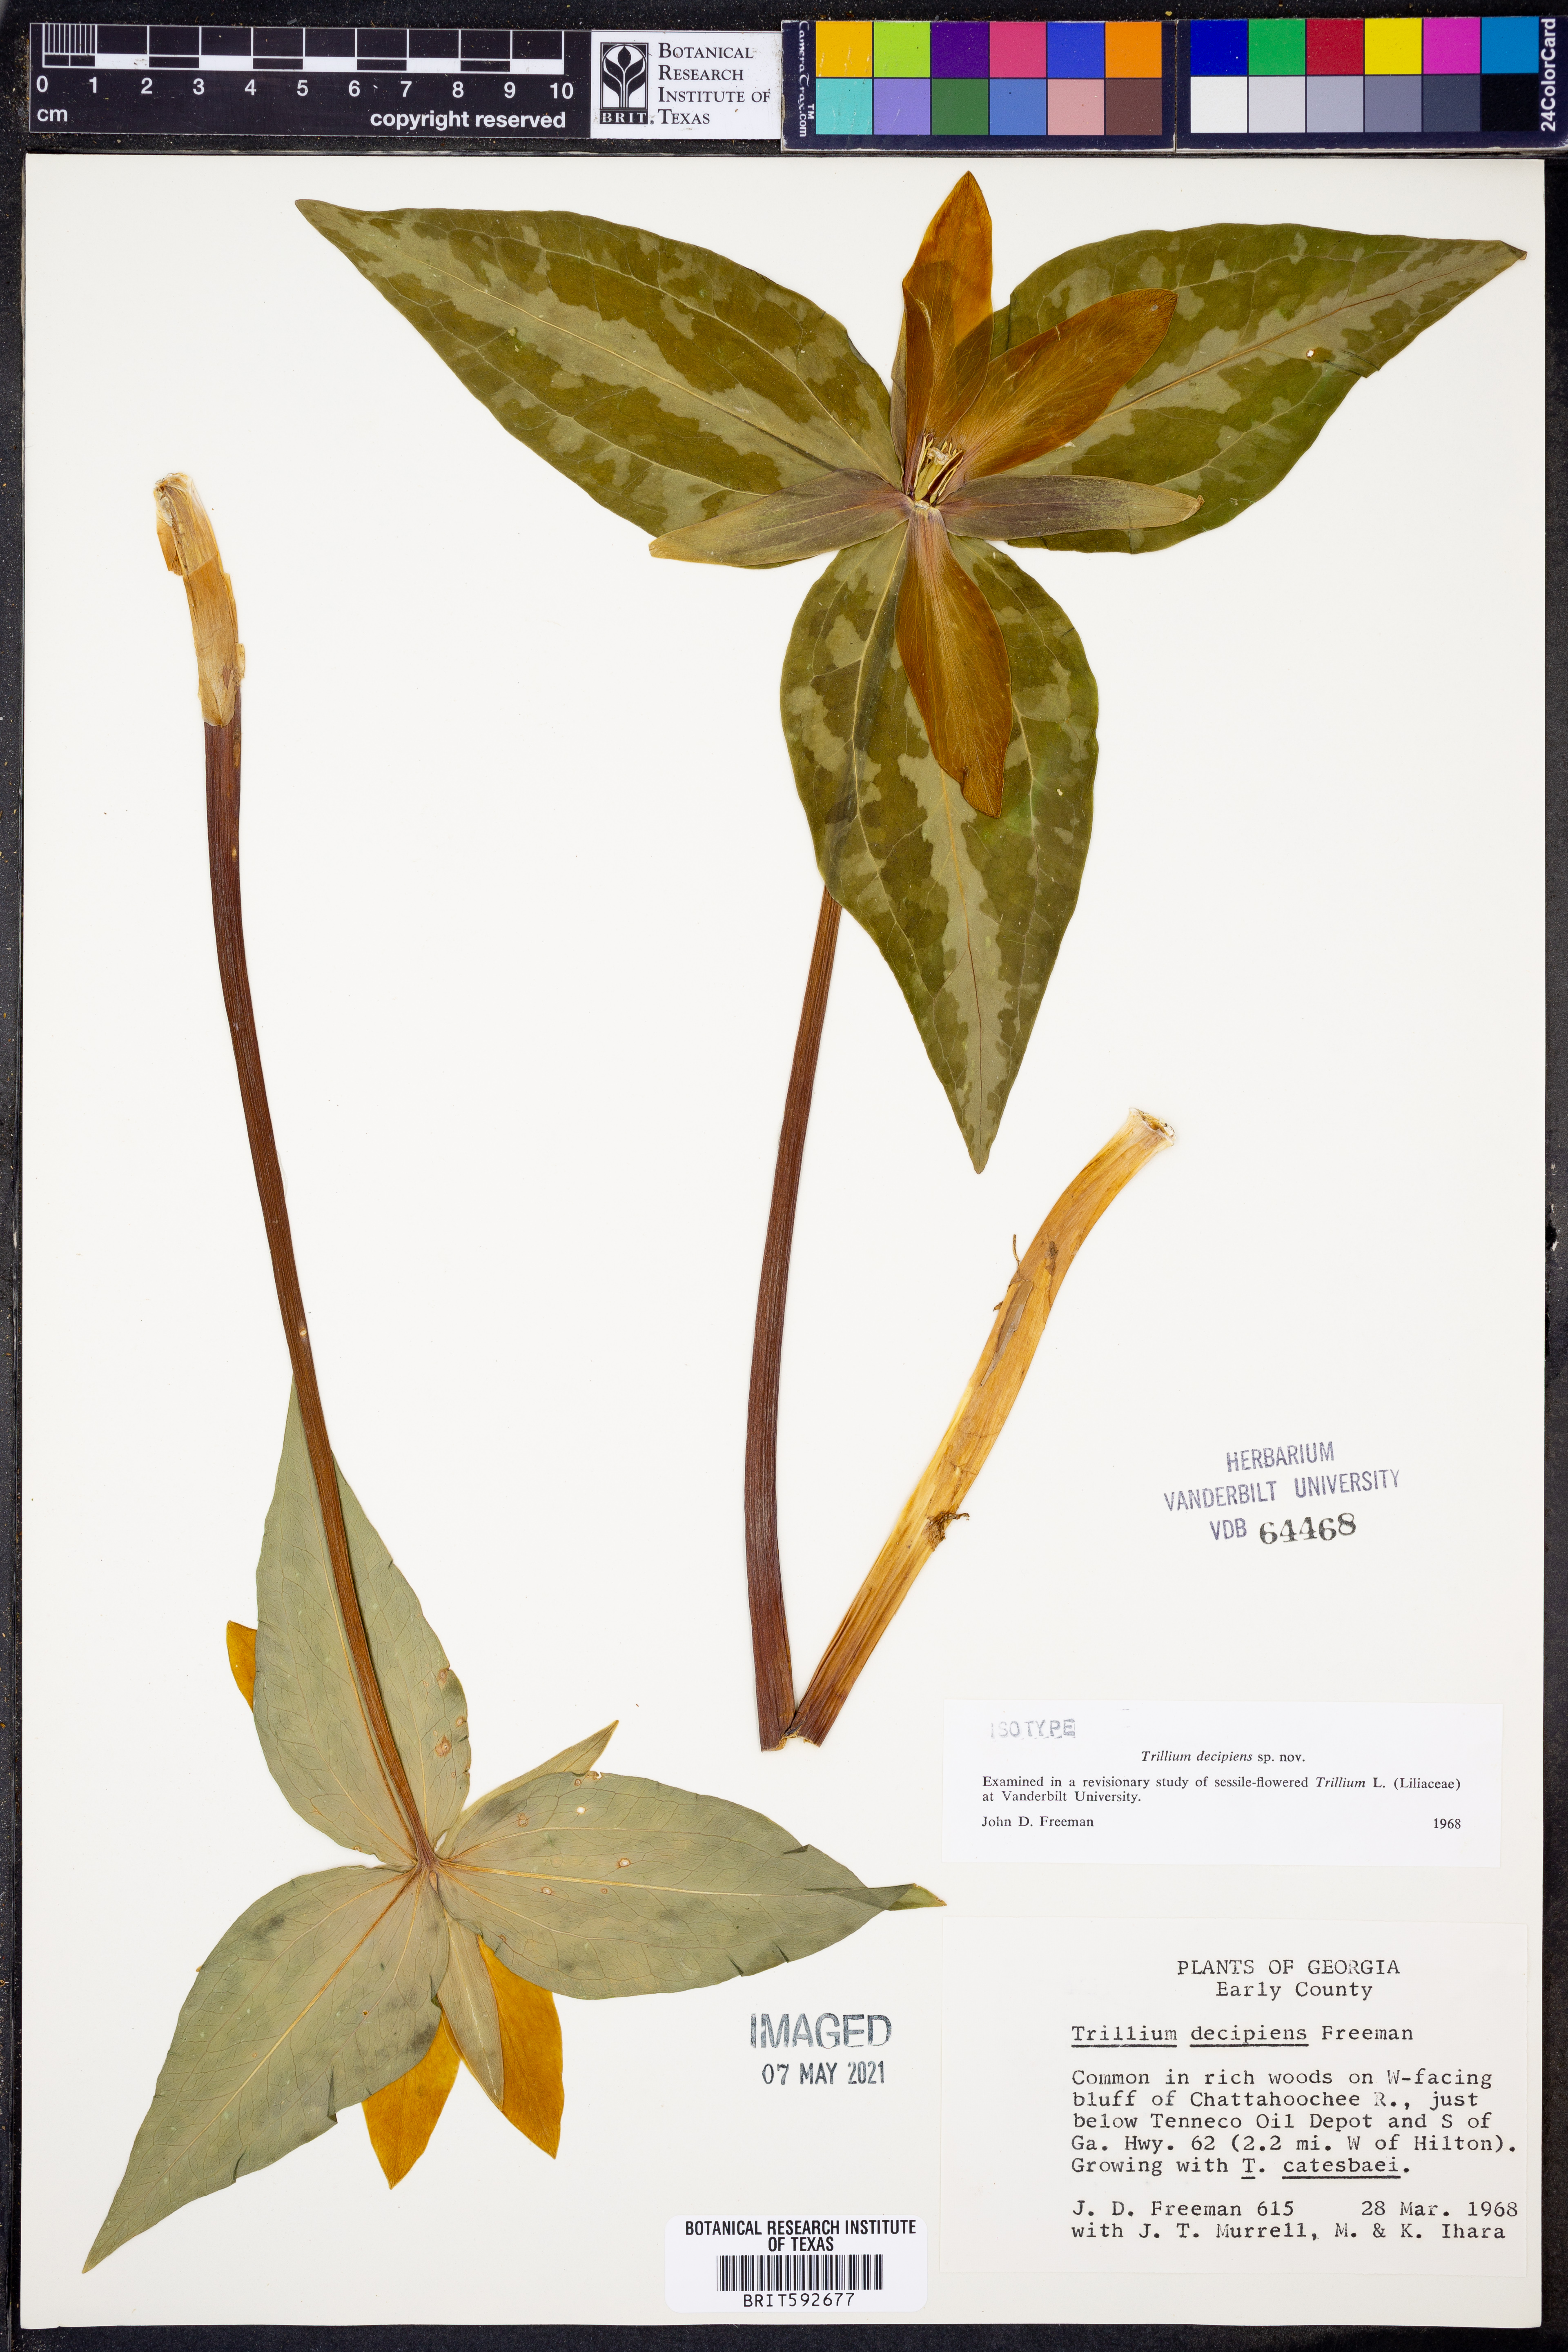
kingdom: Plantae
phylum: Tracheophyta
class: Liliopsida
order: Liliales
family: Melanthiaceae
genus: Trillium
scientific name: Trillium decipiens
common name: Chattahoochee river trillium
